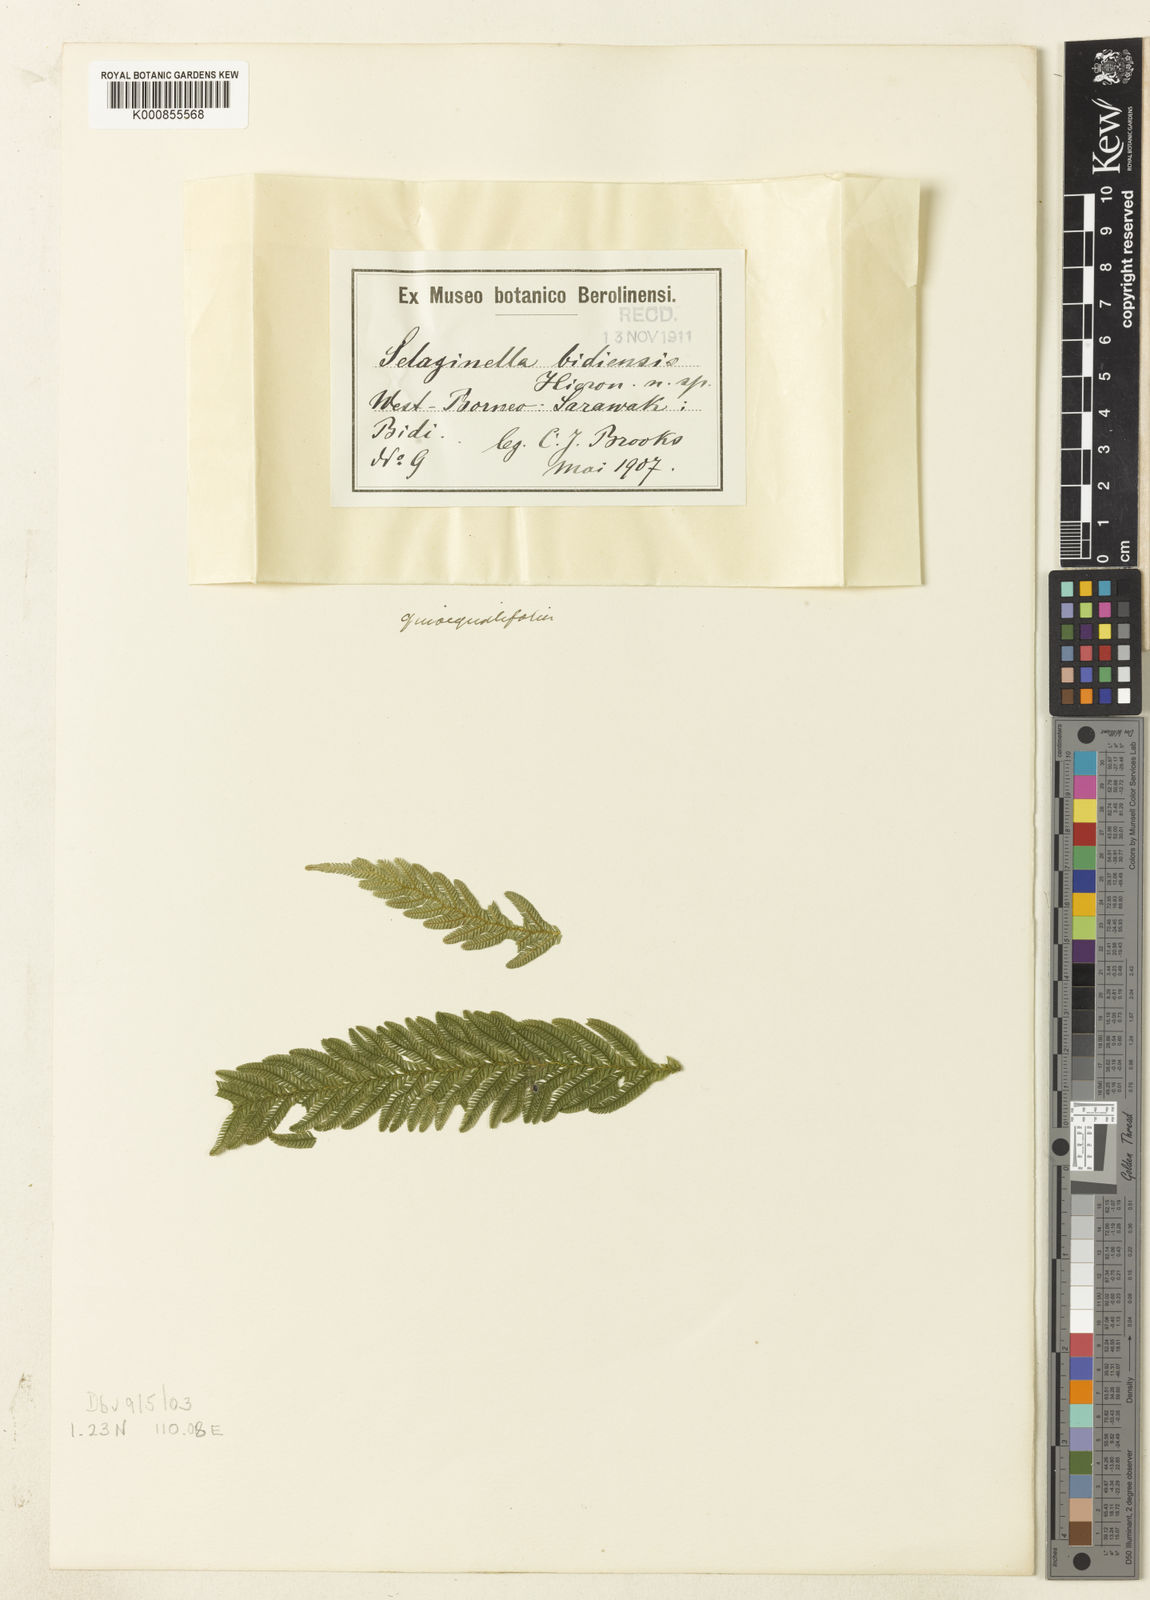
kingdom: Plantae
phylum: Tracheophyta
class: Lycopodiopsida
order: Selaginellales
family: Selaginellaceae
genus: Selaginella
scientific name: Selaginella megalura
